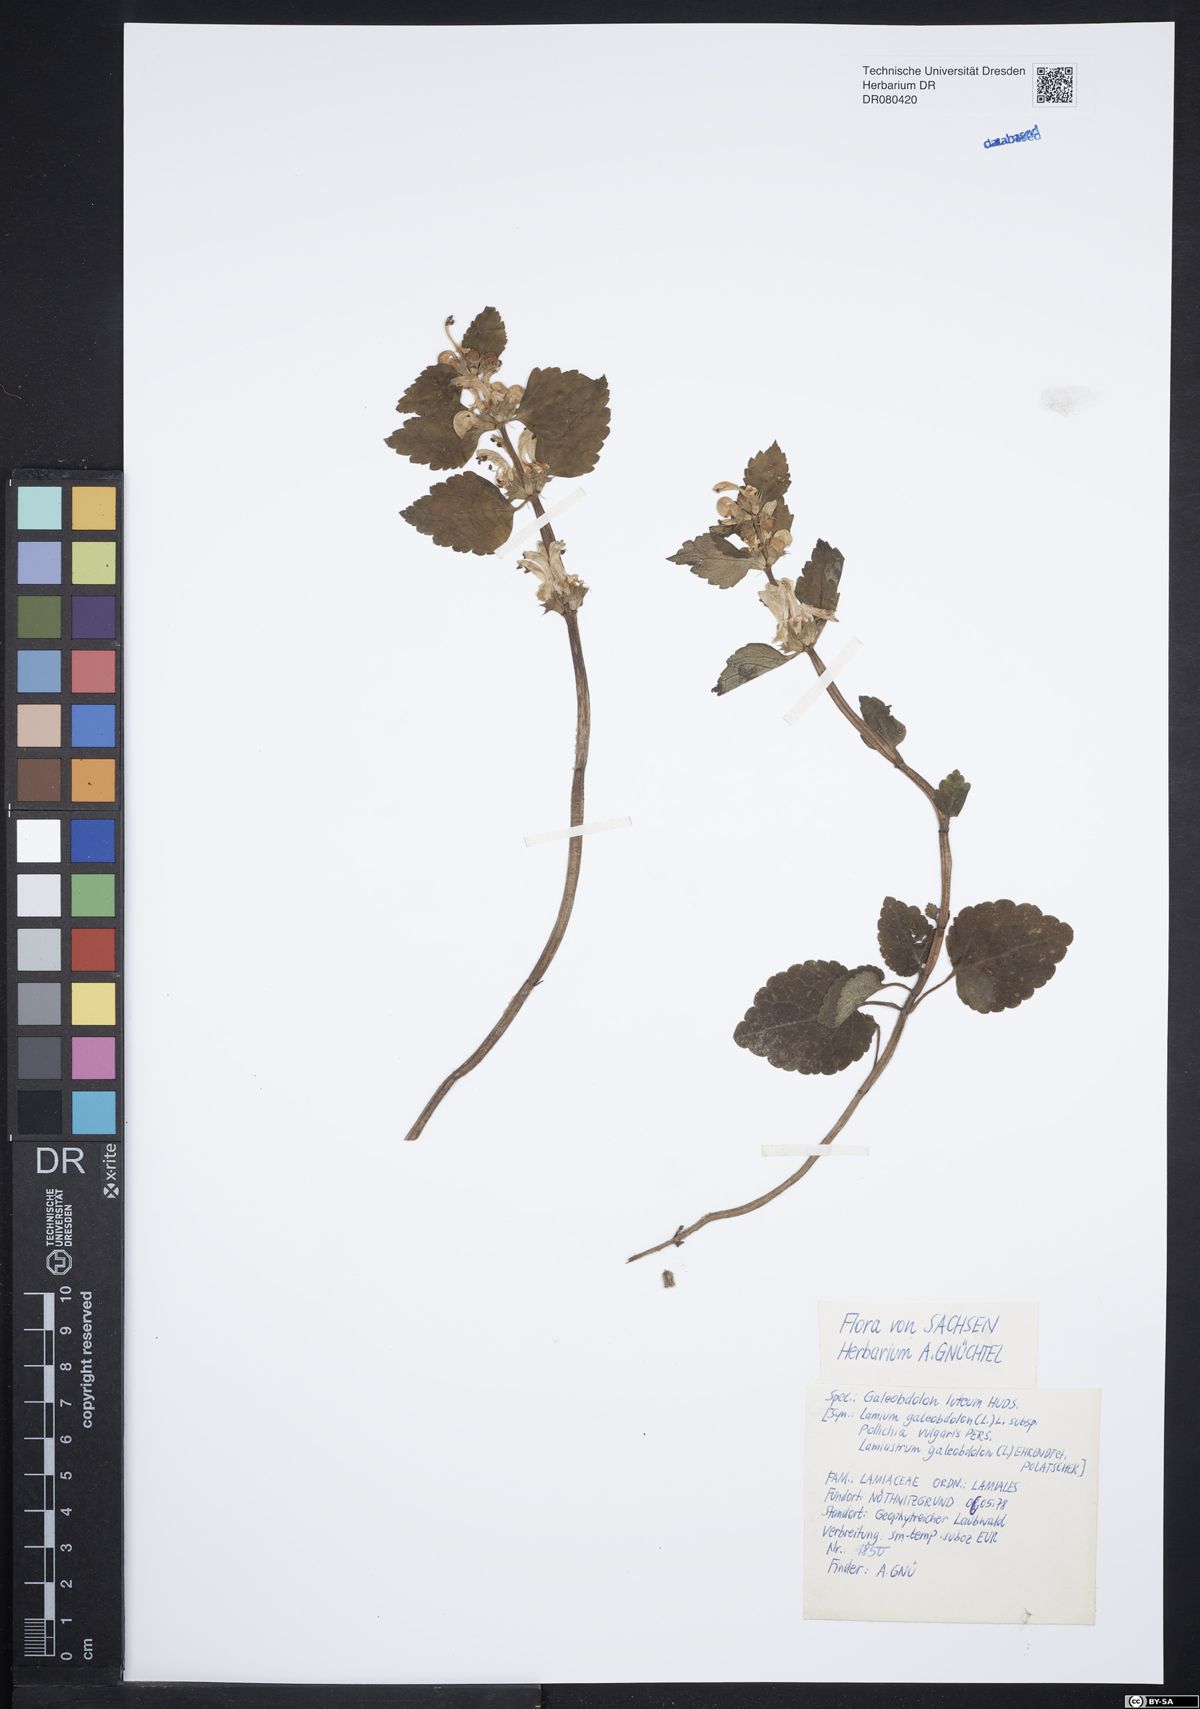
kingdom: Plantae
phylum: Tracheophyta
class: Magnoliopsida
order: Lamiales
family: Lamiaceae
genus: Lamium
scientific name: Lamium galeobdolon
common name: Yellow archangel
